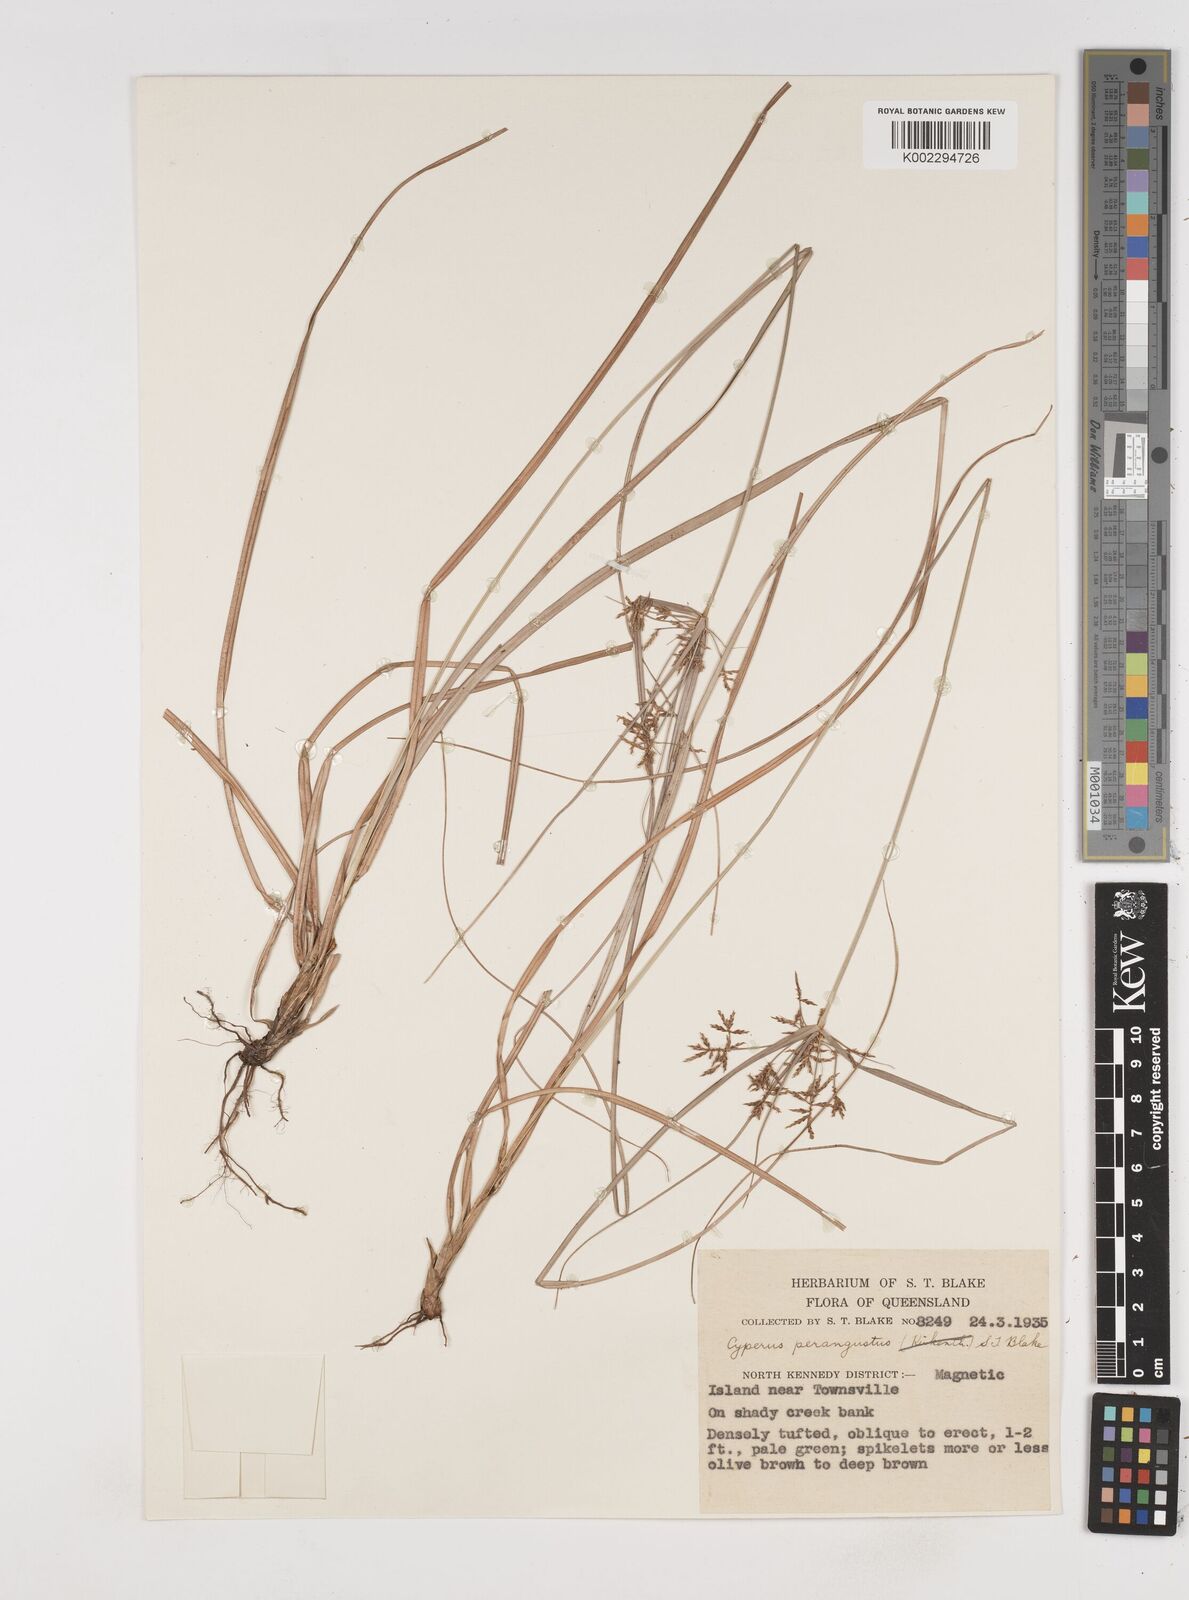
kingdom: Plantae
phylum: Tracheophyta
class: Liliopsida
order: Poales
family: Cyperaceae
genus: Cyperus
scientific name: Cyperus perangustus
